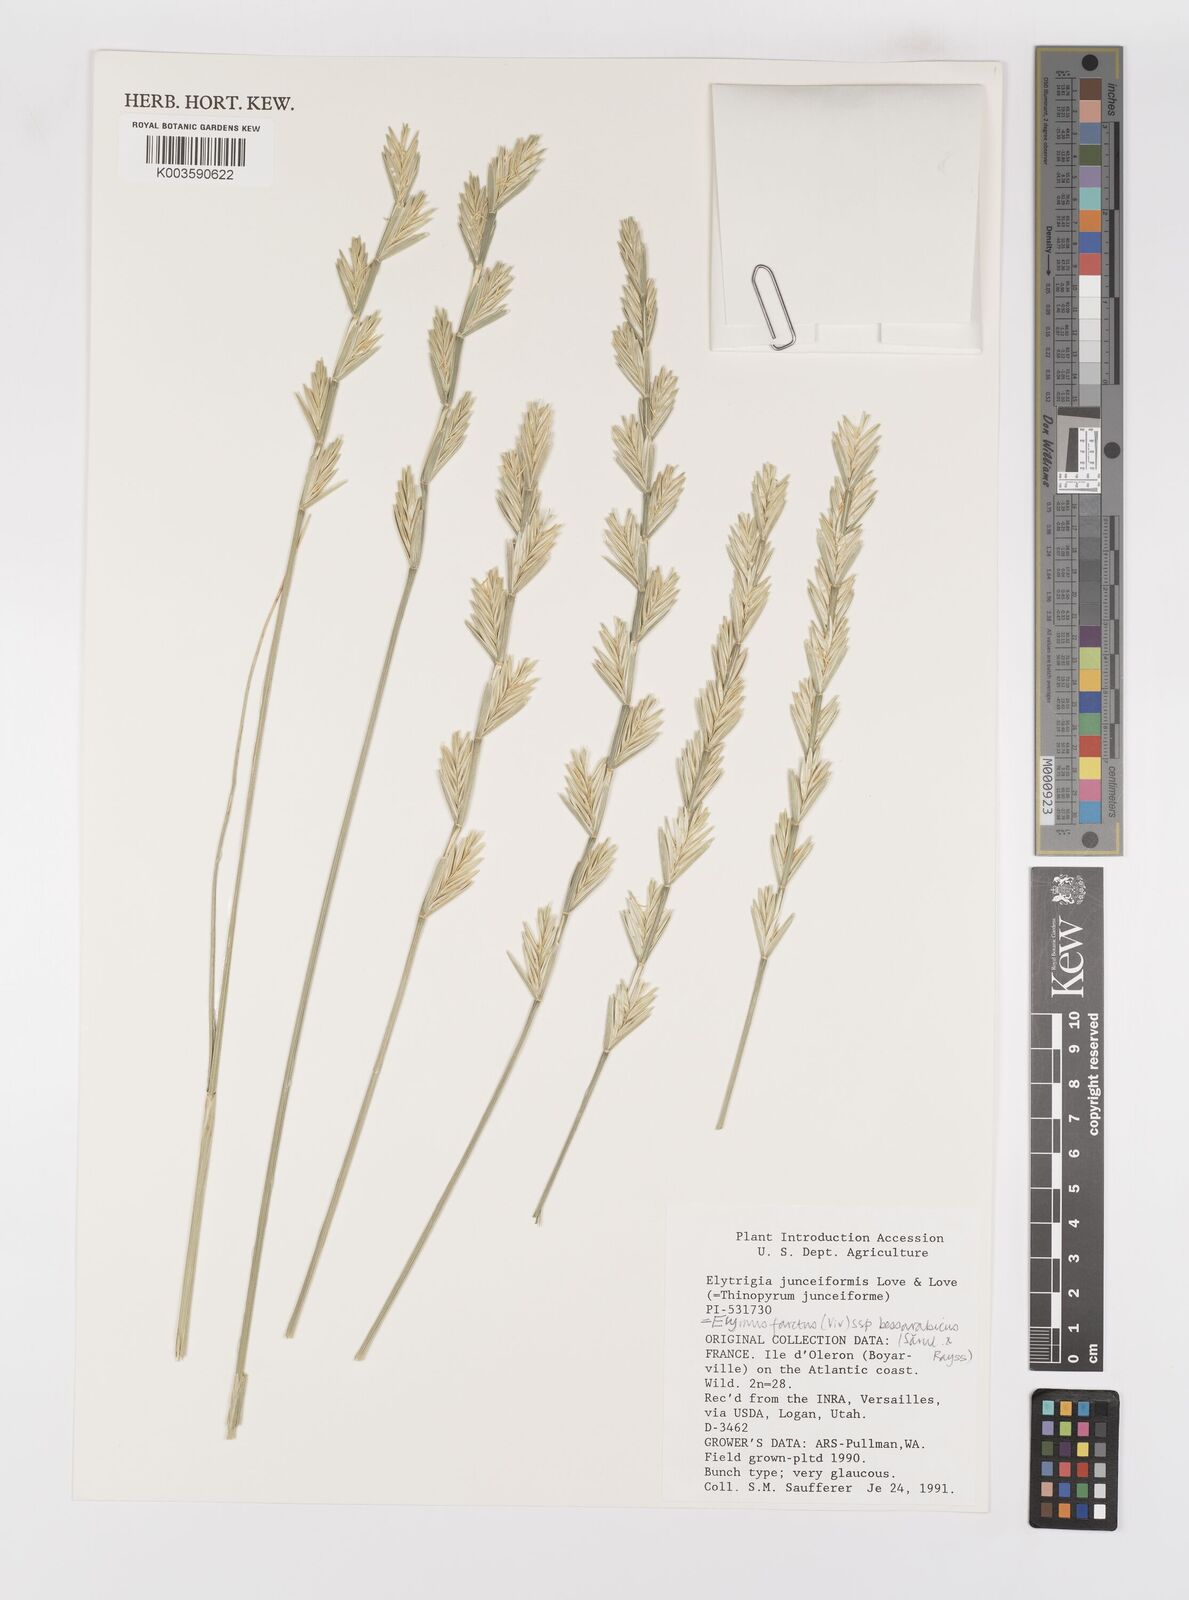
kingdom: Plantae
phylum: Tracheophyta
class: Liliopsida
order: Poales
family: Poaceae
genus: Thinopyrum
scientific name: Thinopyrum junceum
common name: Russian wheatgrass
